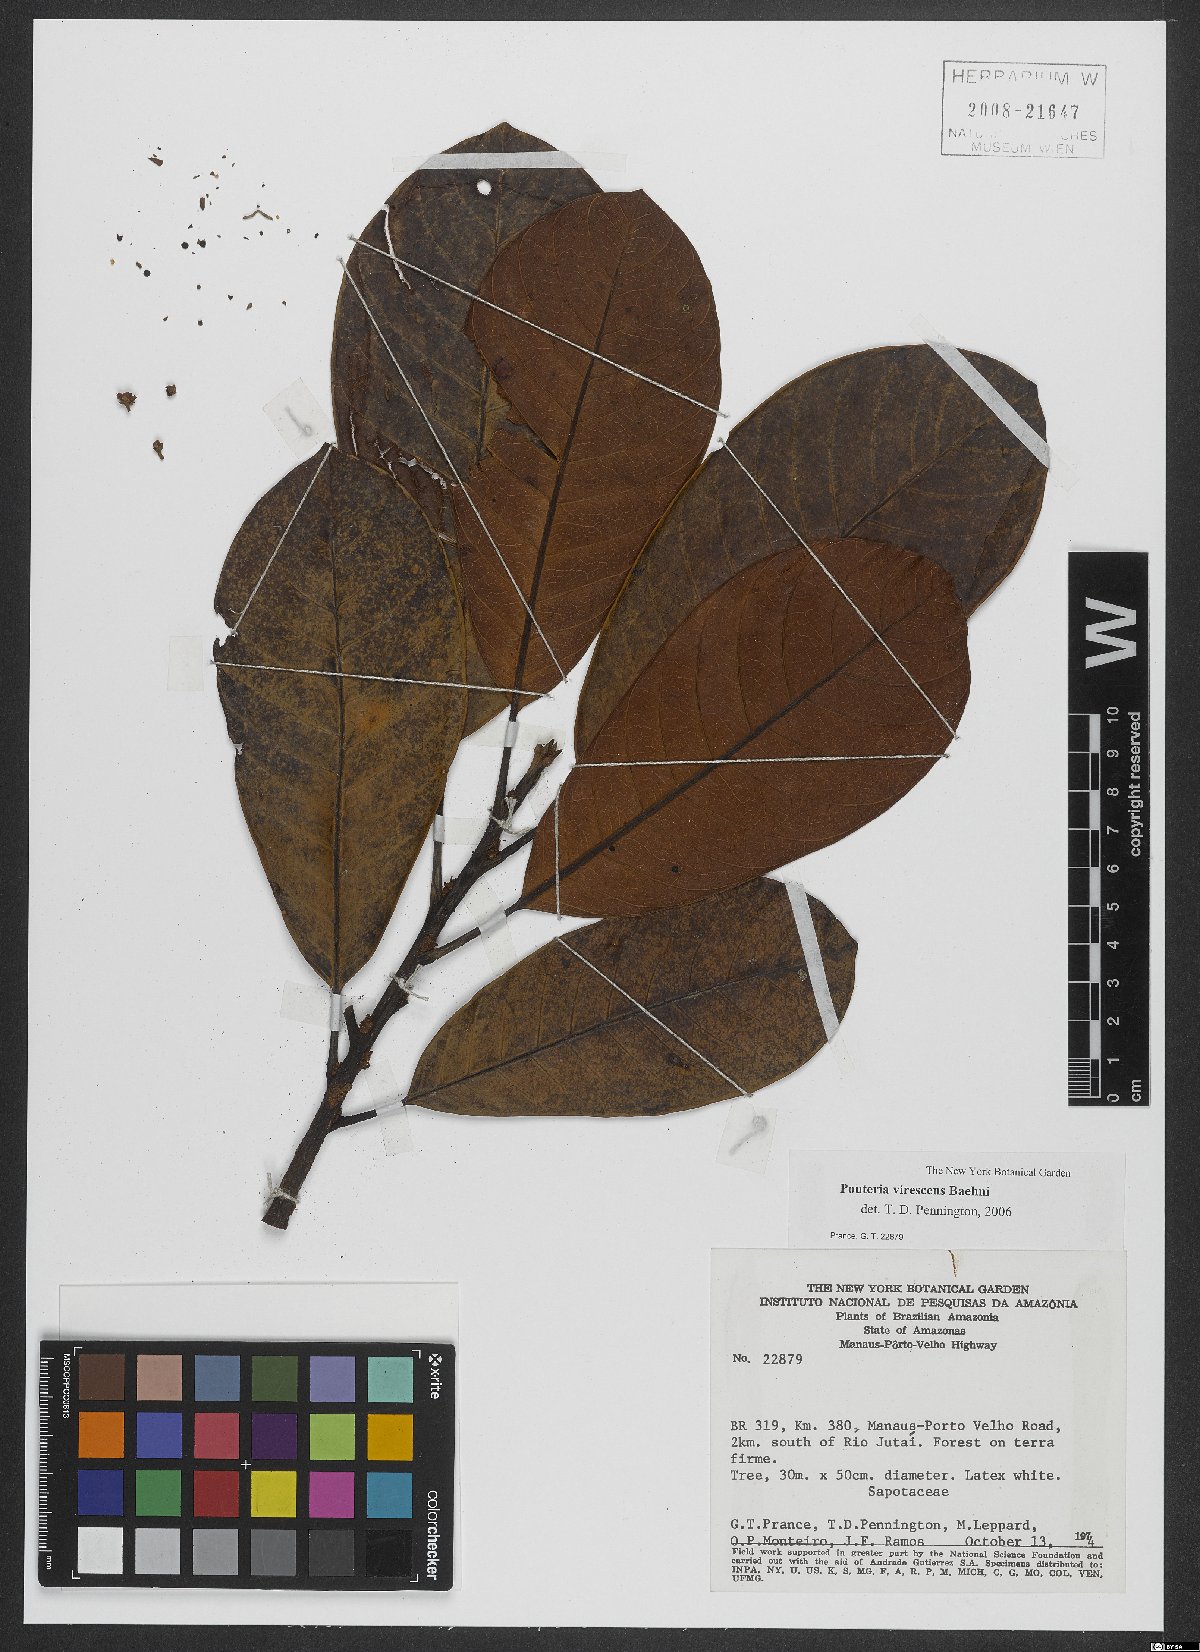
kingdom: Plantae
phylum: Tracheophyta
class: Magnoliopsida
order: Ericales
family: Sapotaceae
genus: Pouteria
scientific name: Pouteria virescens
